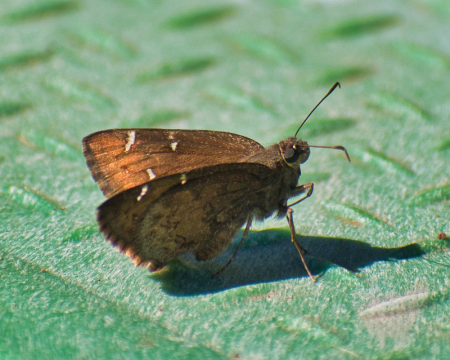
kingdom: Animalia
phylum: Arthropoda
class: Insecta
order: Lepidoptera
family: Hesperiidae
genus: Autochton
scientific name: Autochton
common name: Northern Cloudywing
